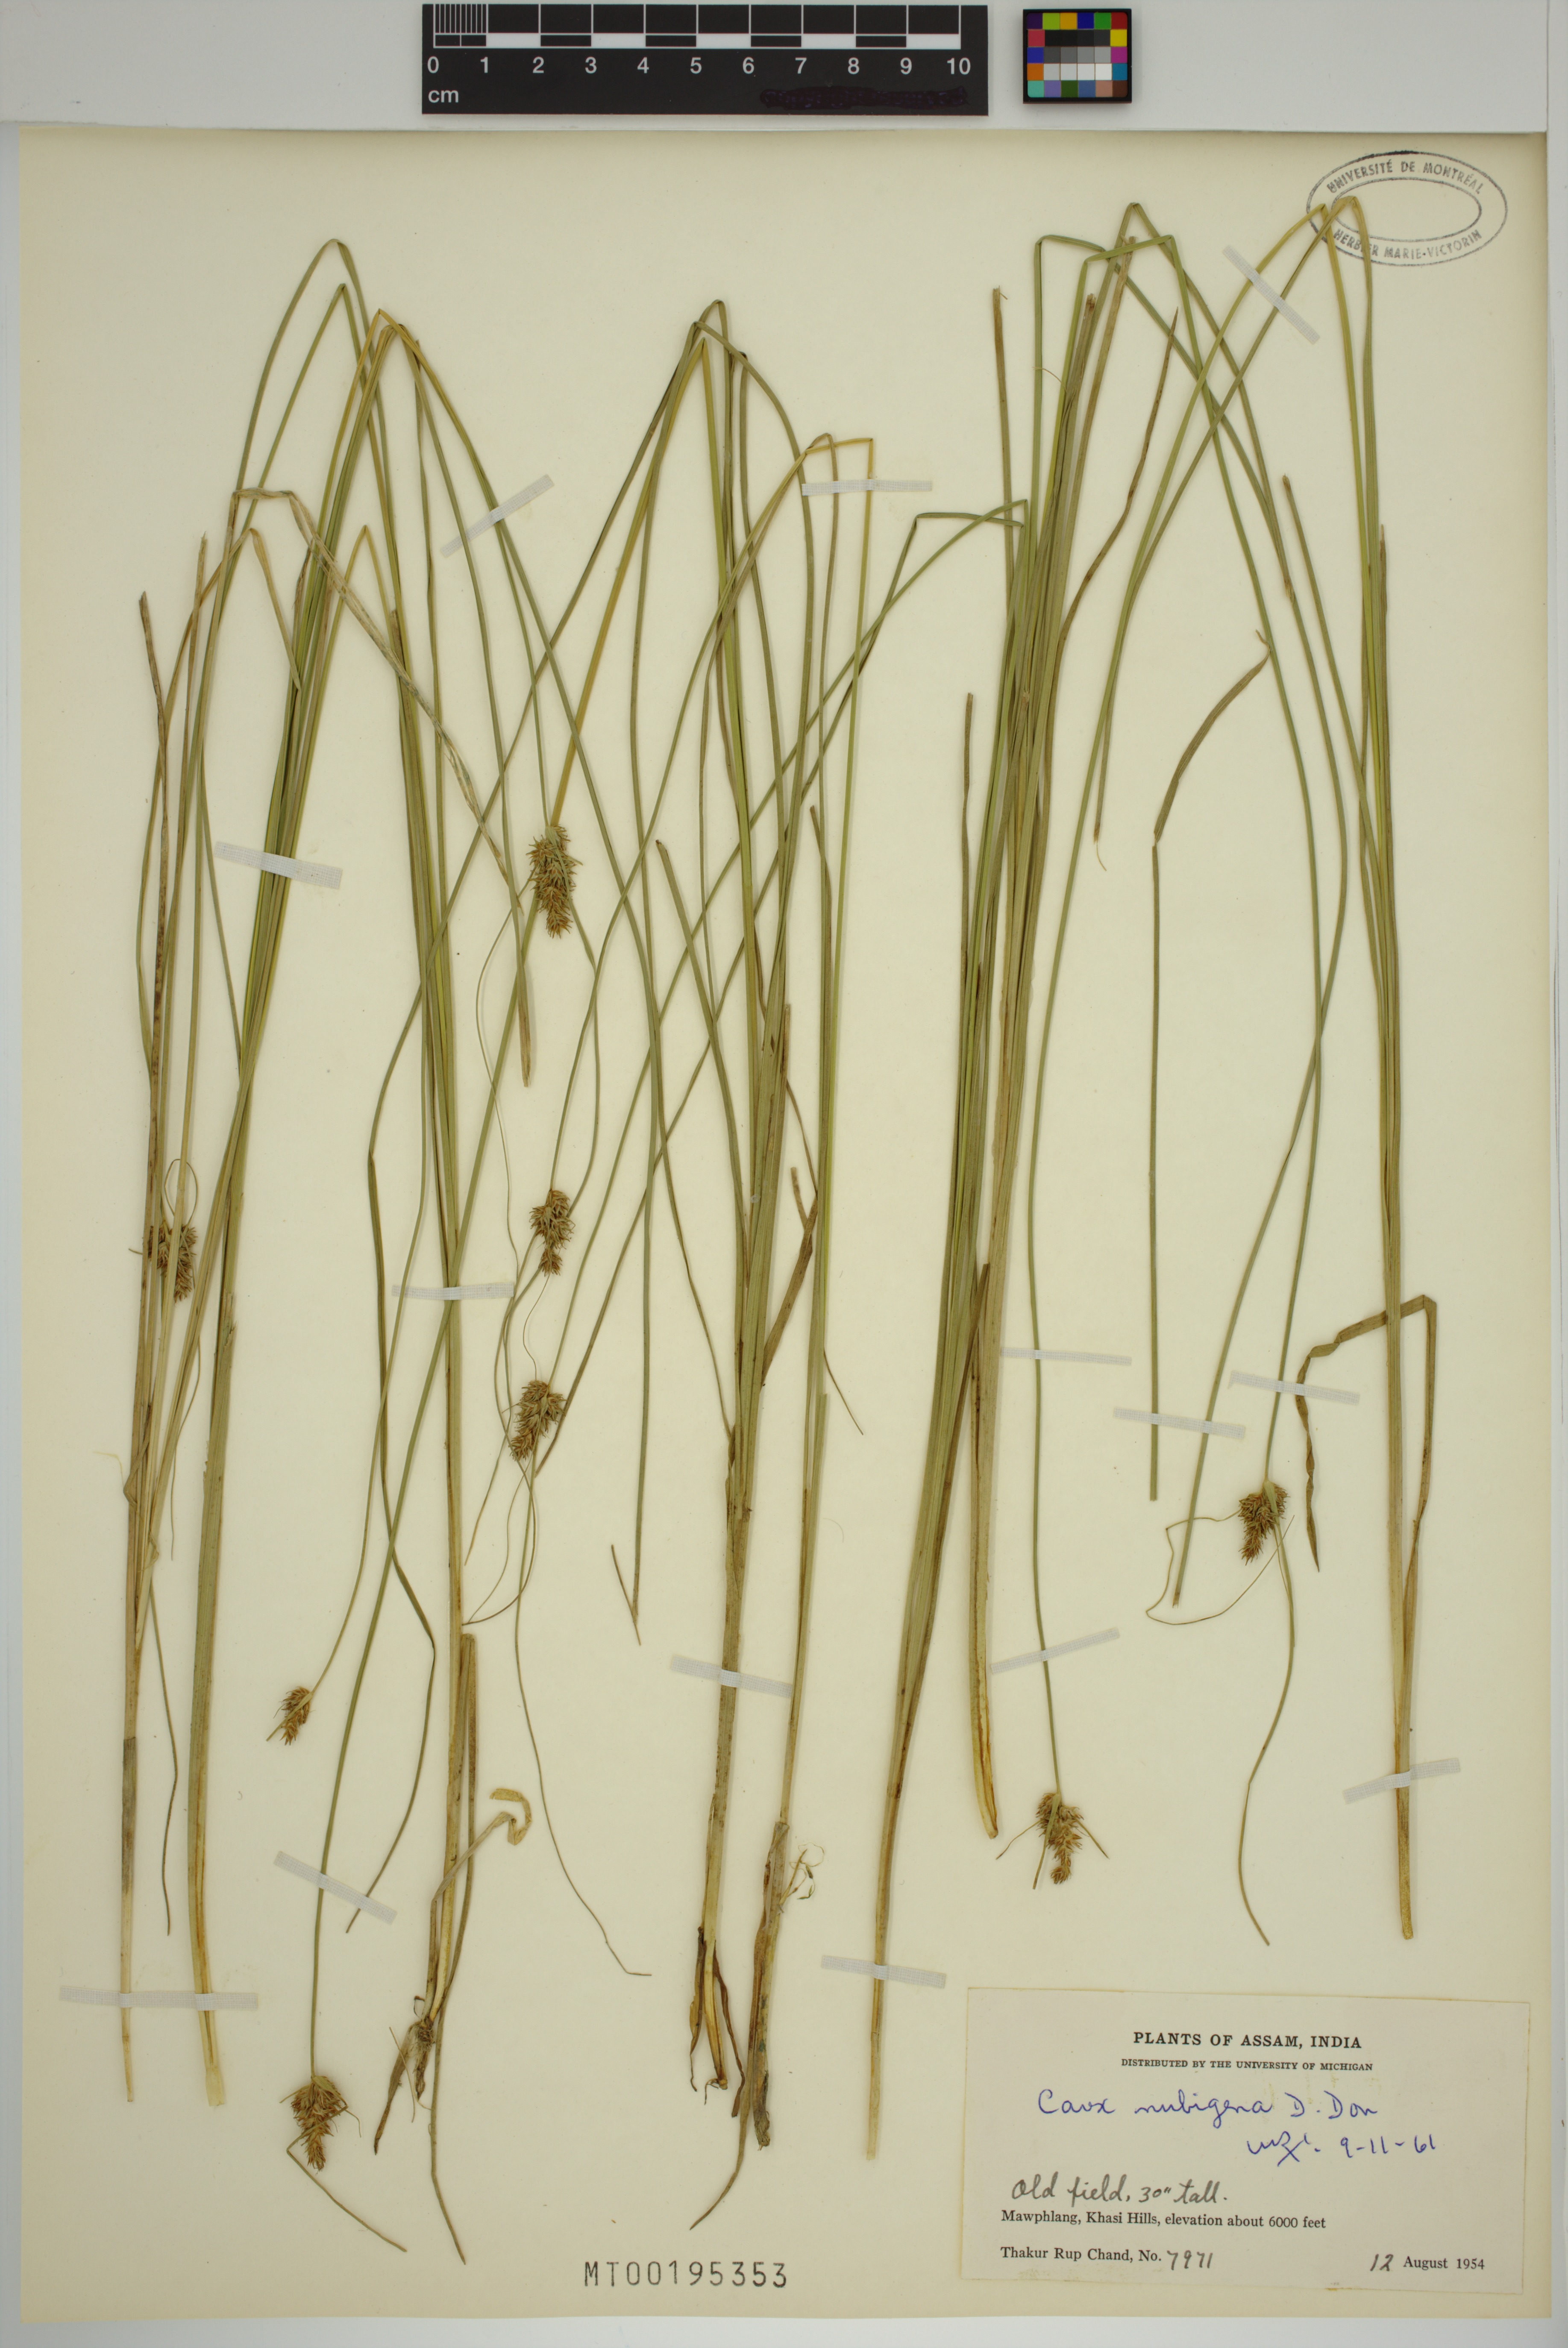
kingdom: Plantae
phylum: Tracheophyta
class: Liliopsida
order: Poales
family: Cyperaceae
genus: Carex
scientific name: Carex nubigena
